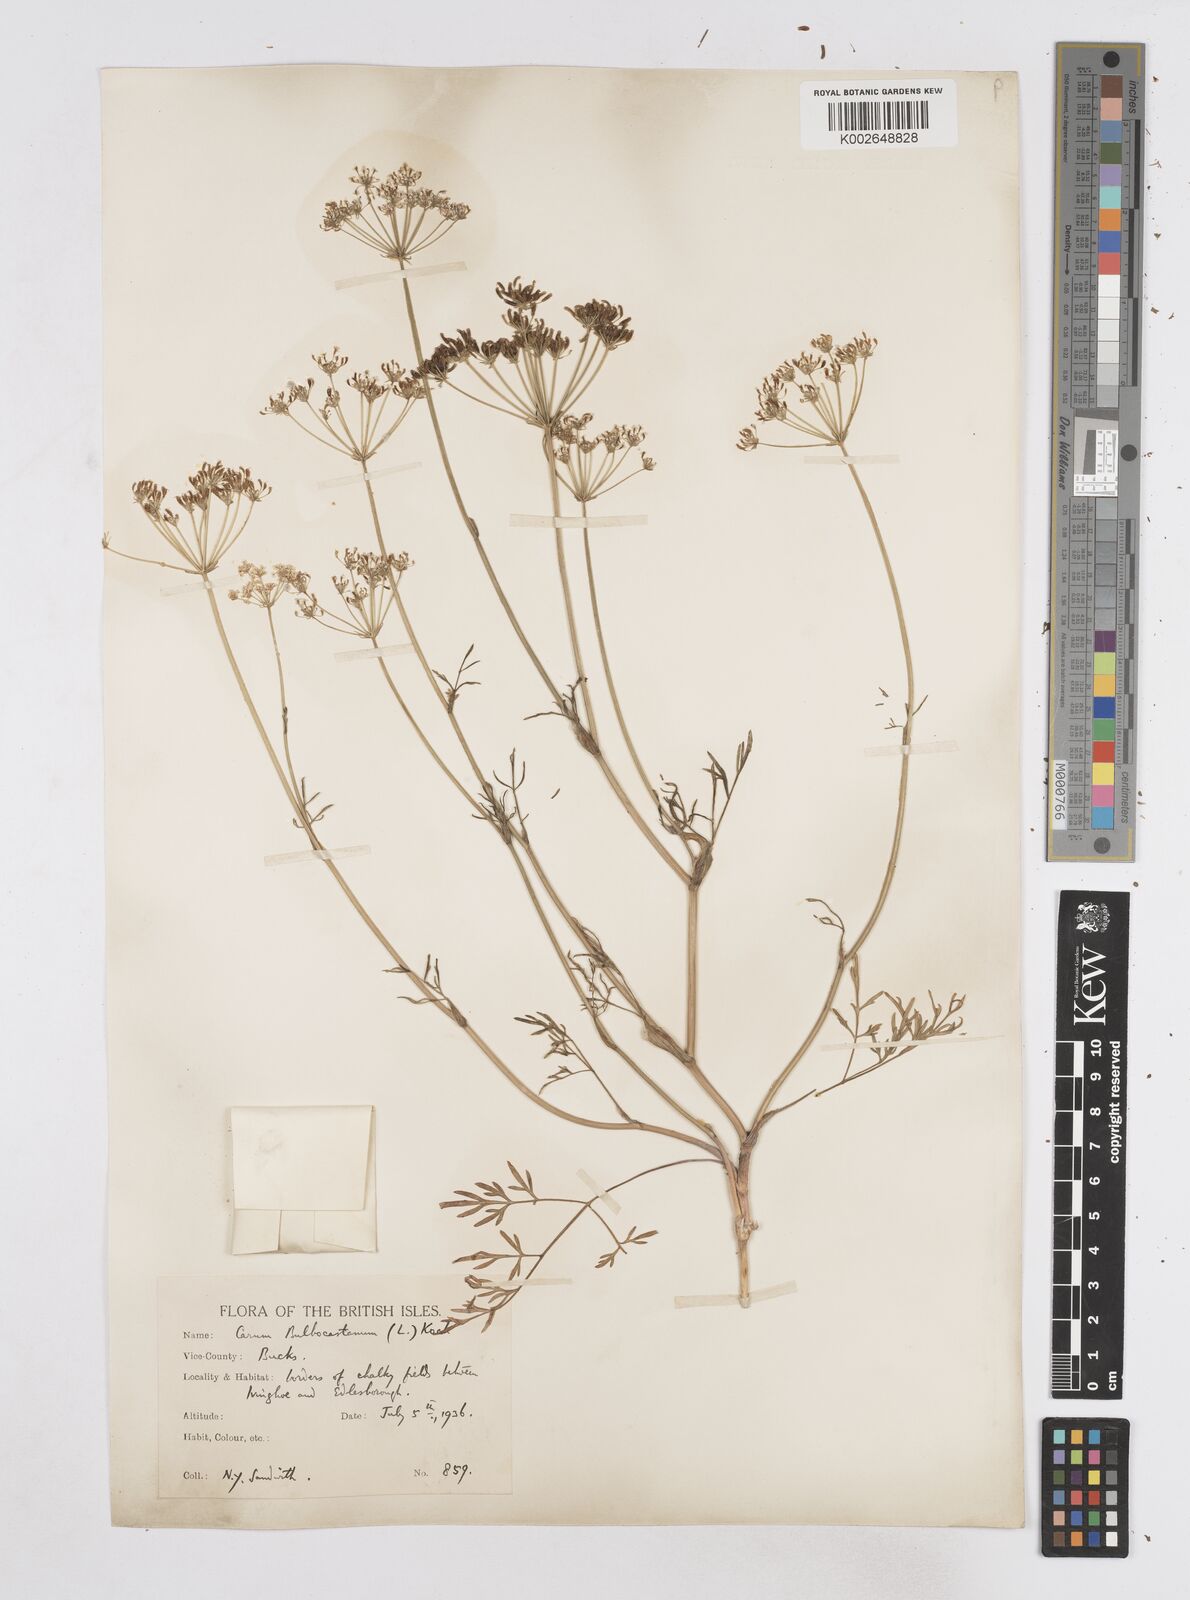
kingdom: Plantae
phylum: Tracheophyta
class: Magnoliopsida
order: Apiales
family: Apiaceae
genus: Bunium
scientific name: Bunium bulbocastanum
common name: Great pignut
